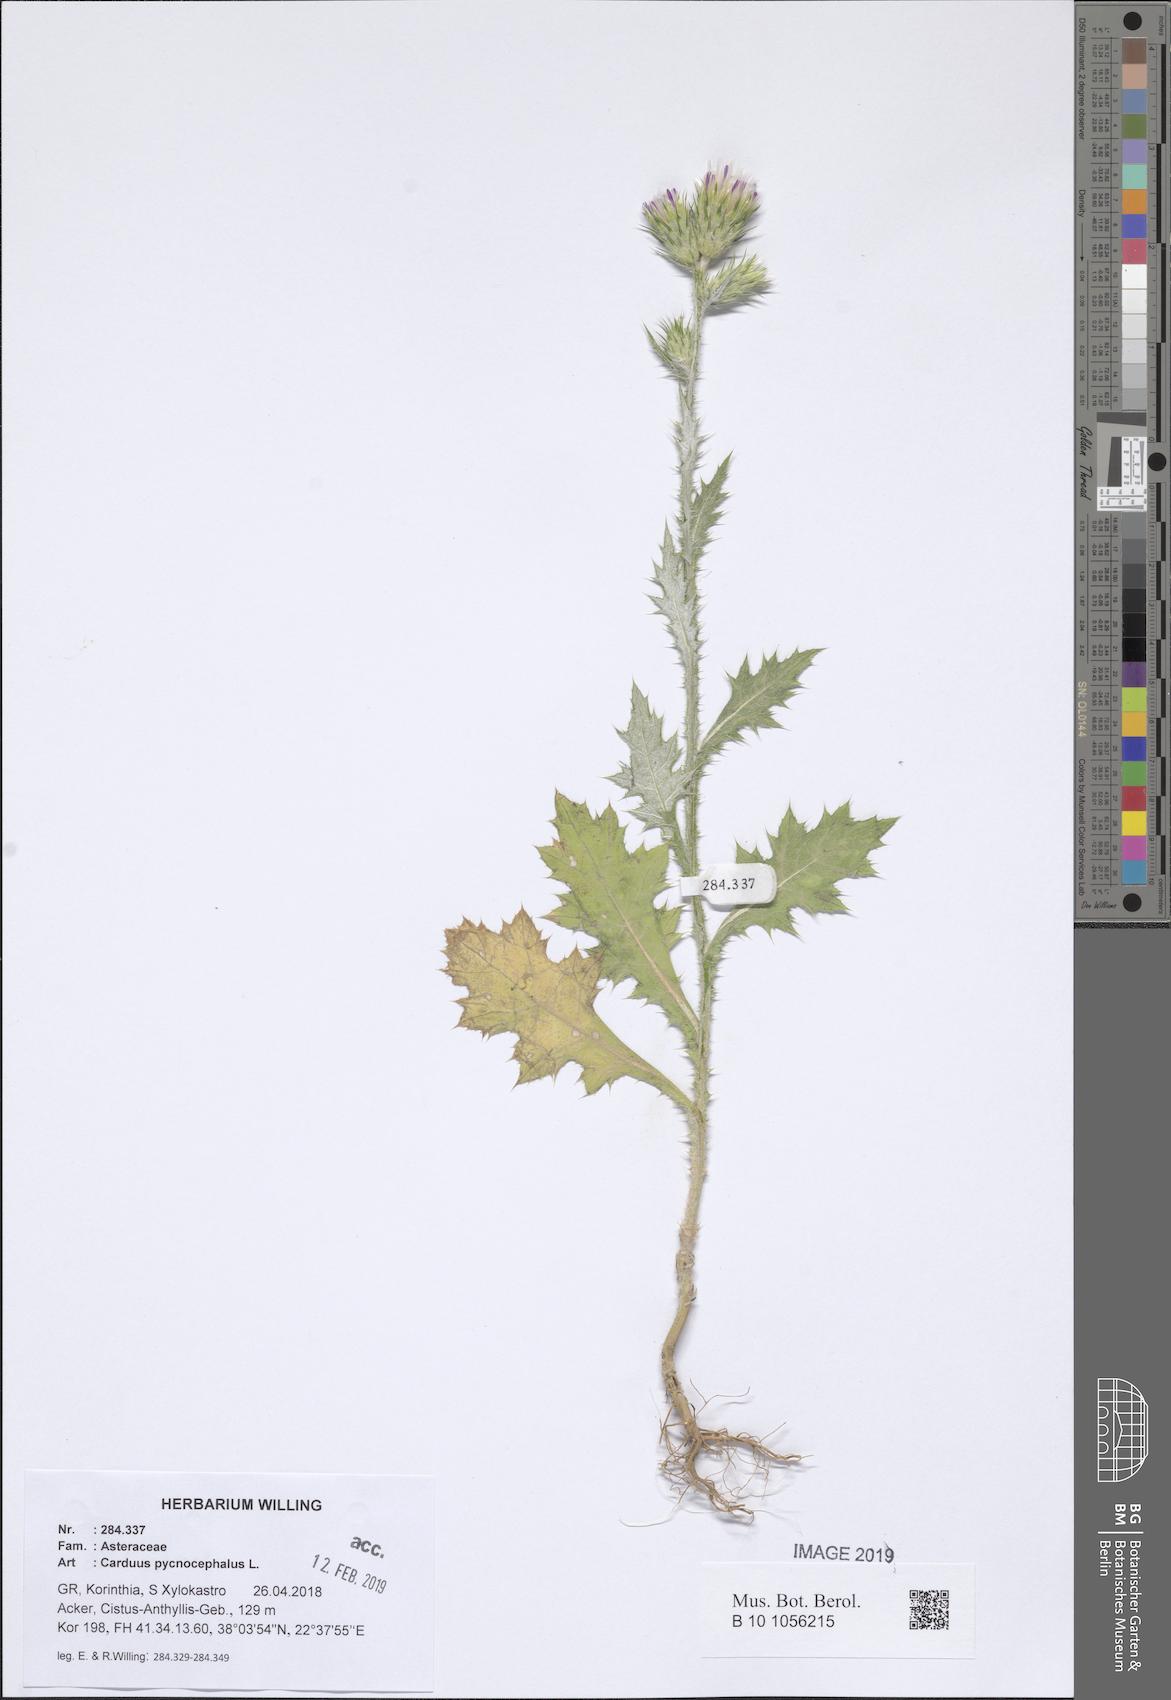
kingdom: Plantae
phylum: Tracheophyta
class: Magnoliopsida
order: Asterales
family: Asteraceae
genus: Carduus
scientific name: Carduus pycnocephalus
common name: Plymouth thistle
